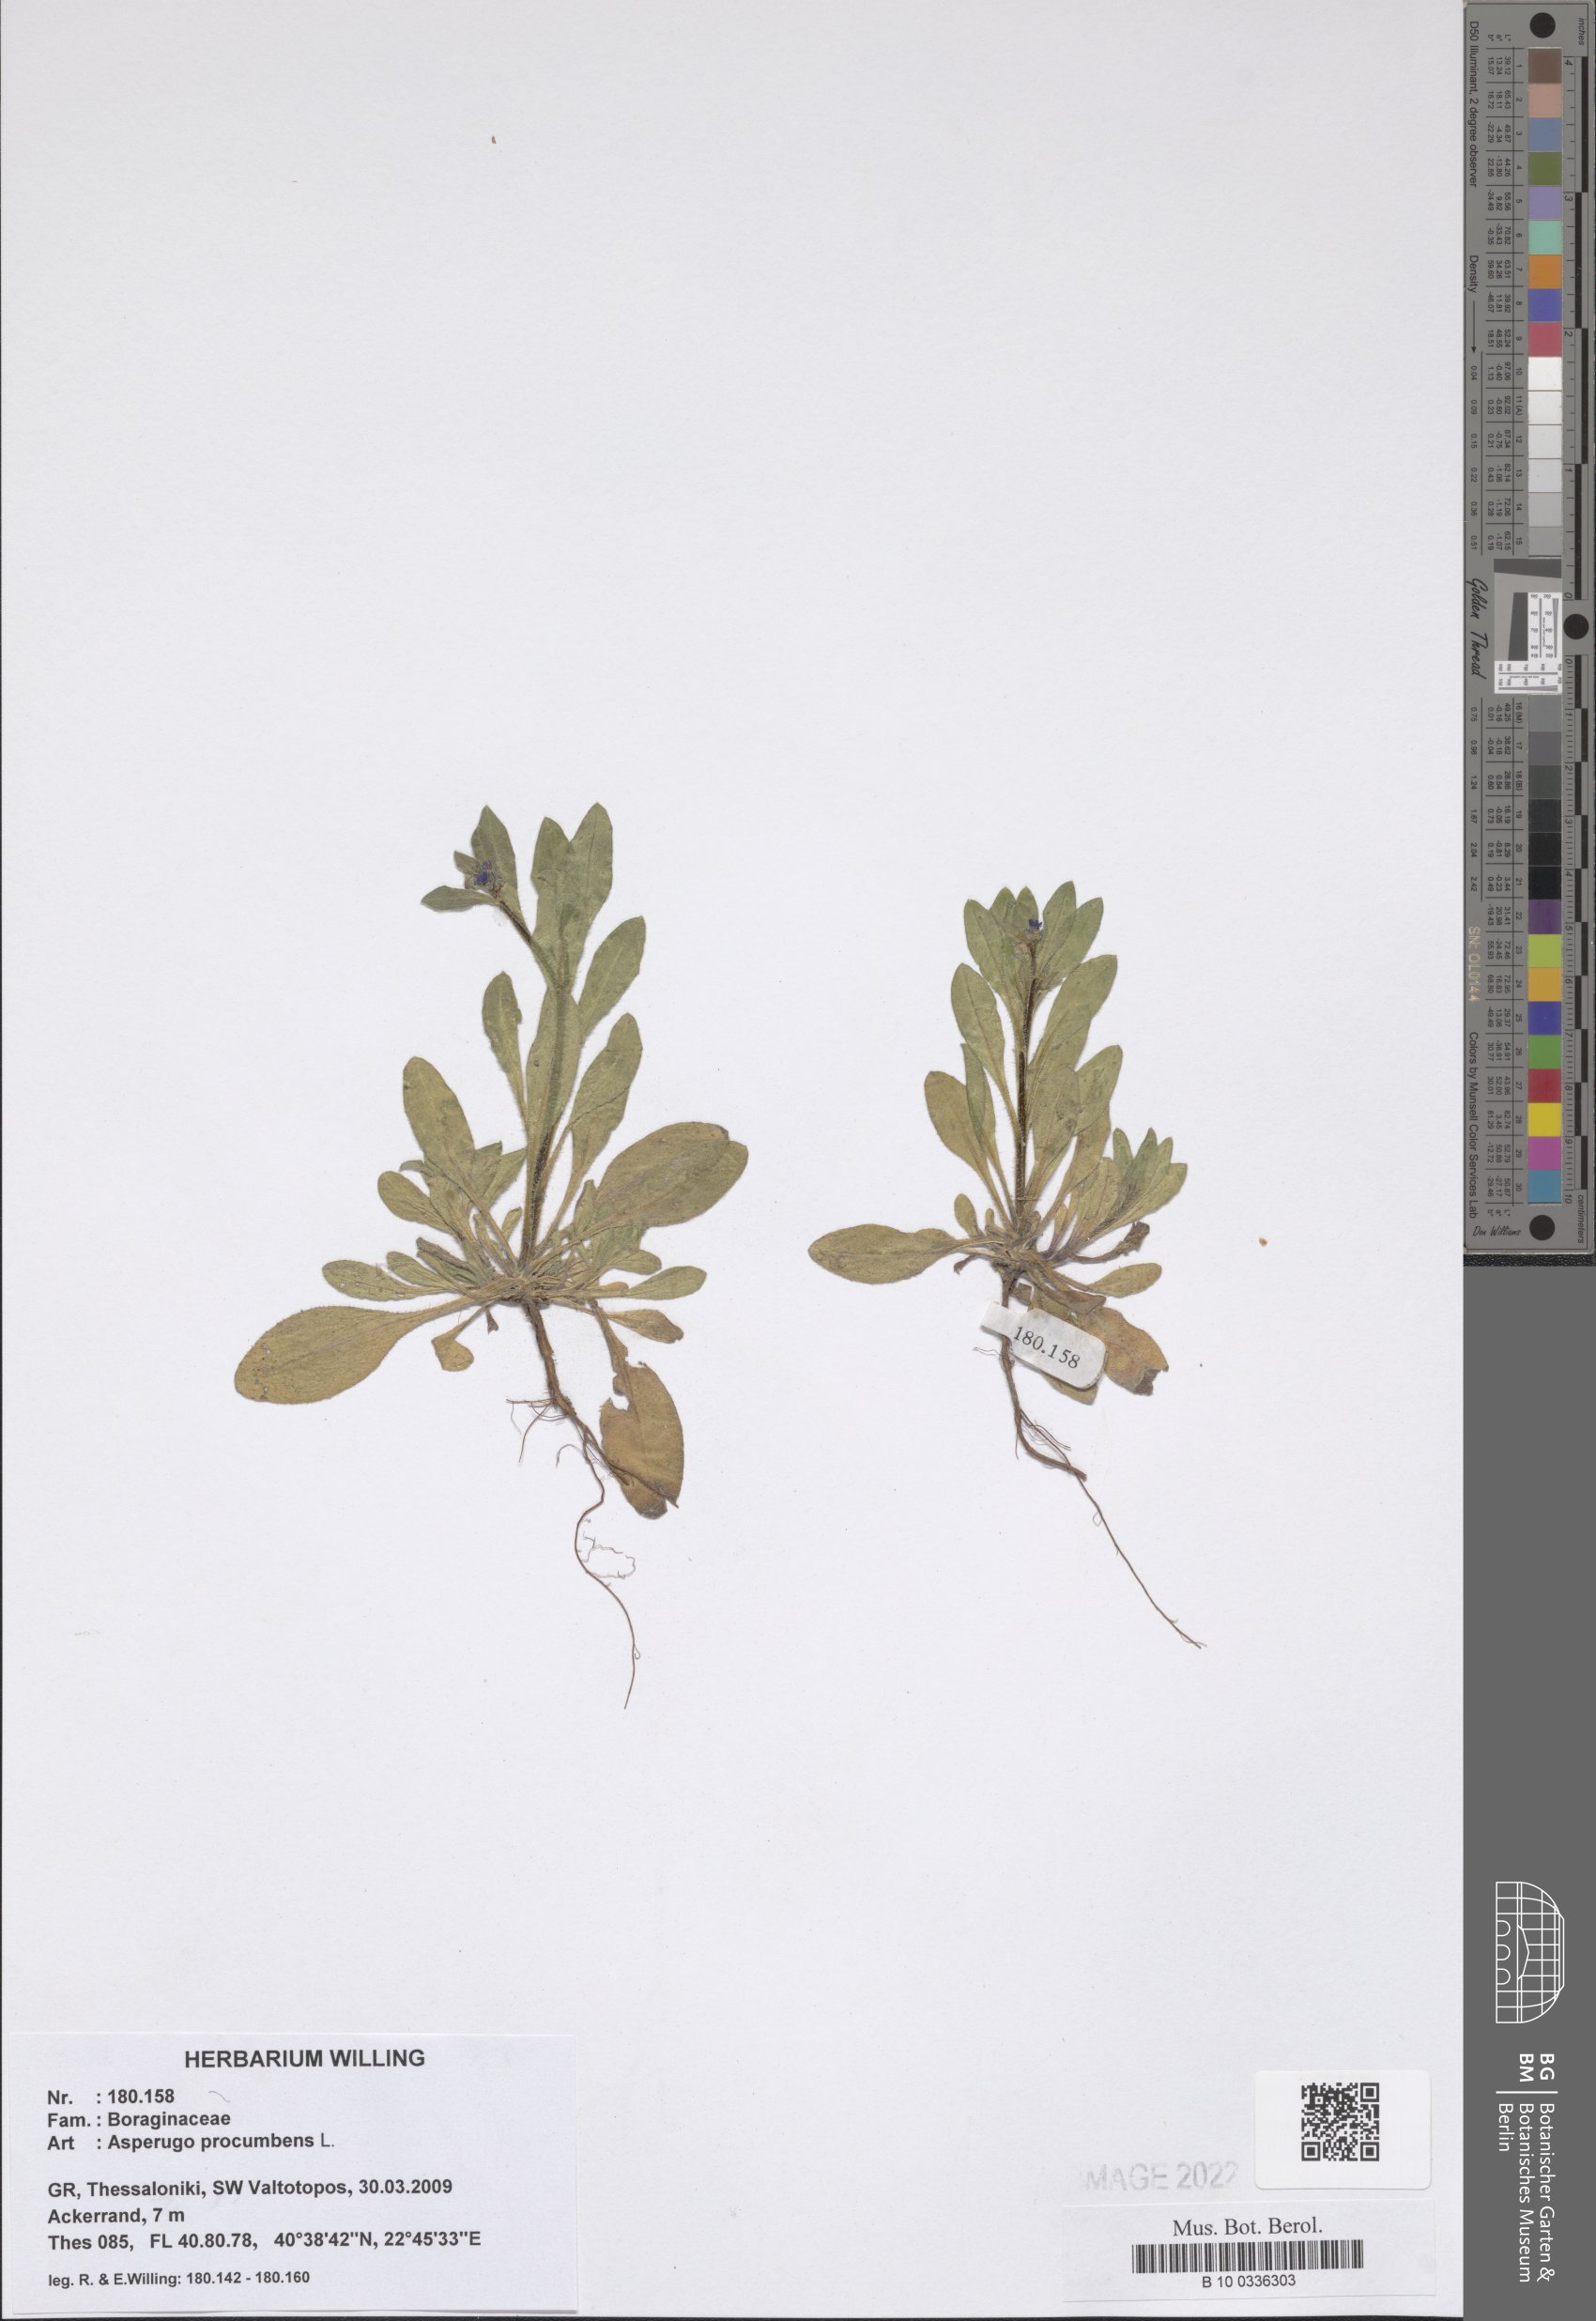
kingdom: Plantae
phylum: Tracheophyta
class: Magnoliopsida
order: Boraginales
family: Boraginaceae
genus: Asperugo
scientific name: Asperugo procumbens
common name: Madwort
